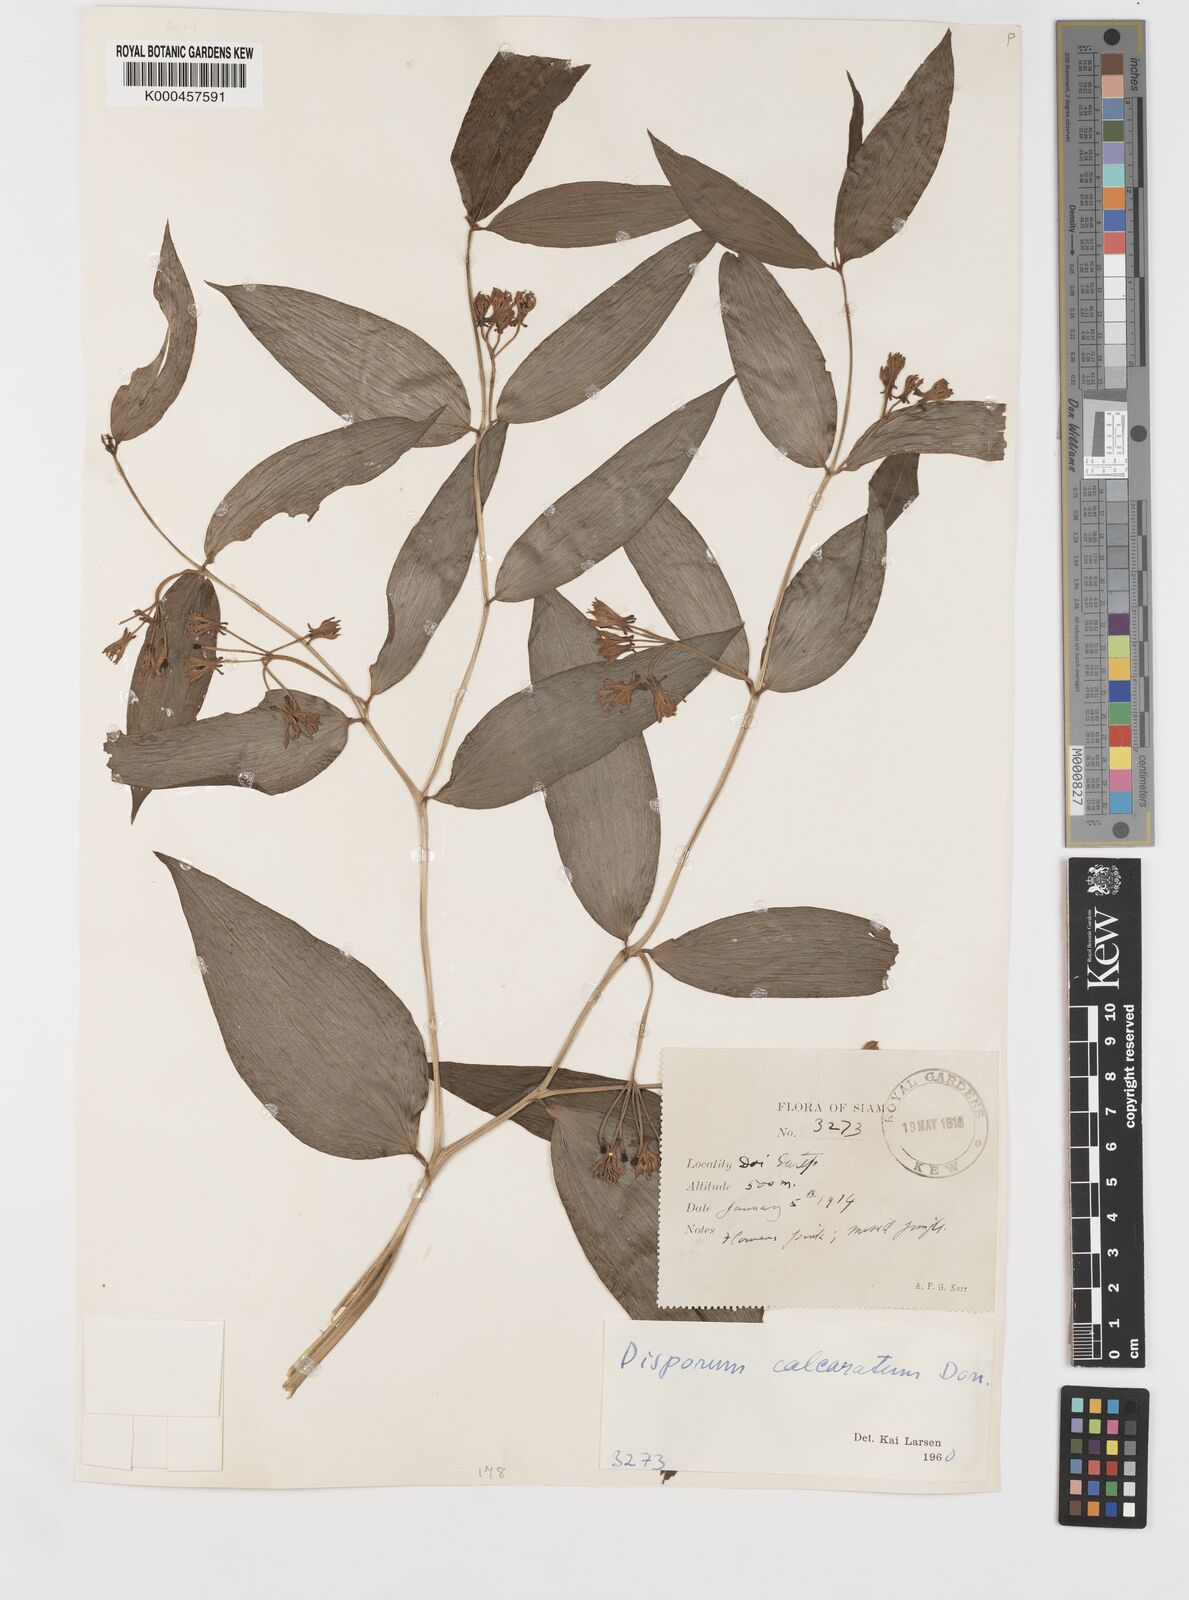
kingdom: Plantae
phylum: Tracheophyta
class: Liliopsida
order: Liliales
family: Colchicaceae
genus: Disporum
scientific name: Disporum calcaratum
